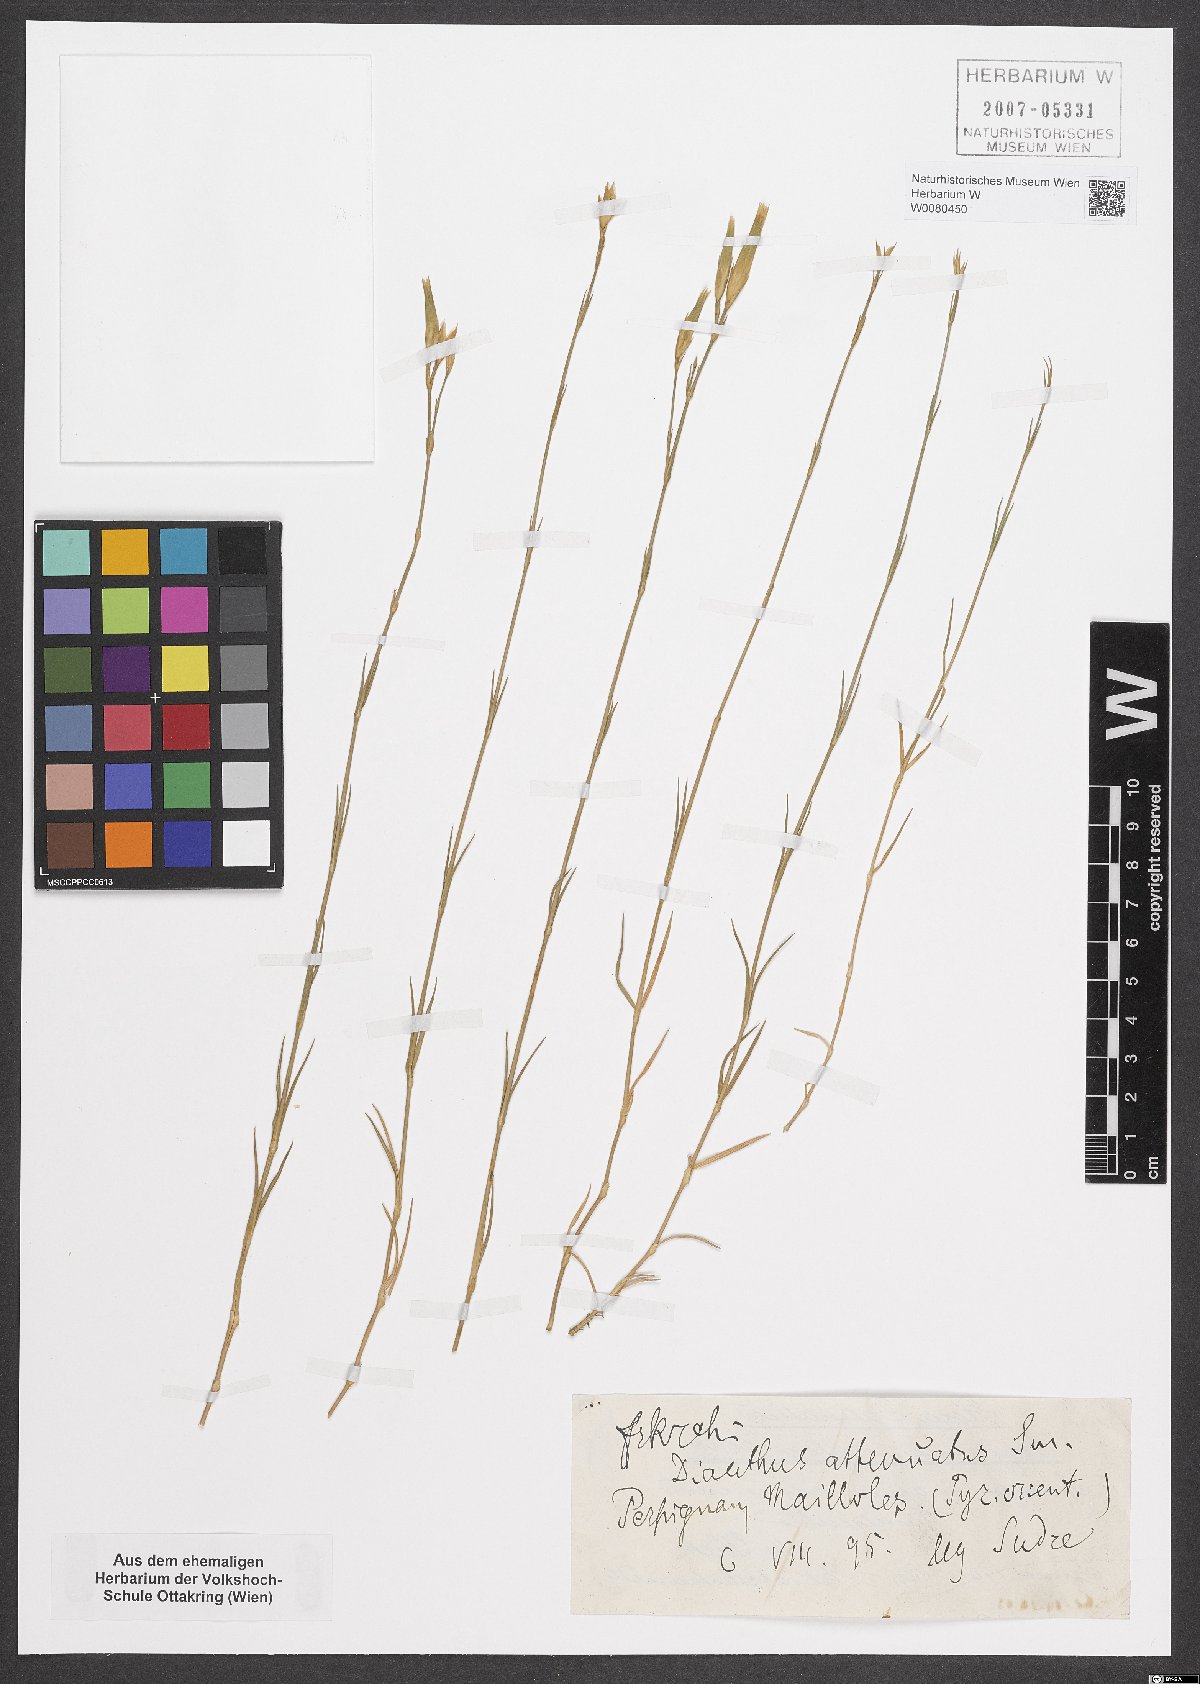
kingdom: Plantae
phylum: Tracheophyta
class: Magnoliopsida
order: Caryophyllales
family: Caryophyllaceae
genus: Dianthus
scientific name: Dianthus pyrenaicus
